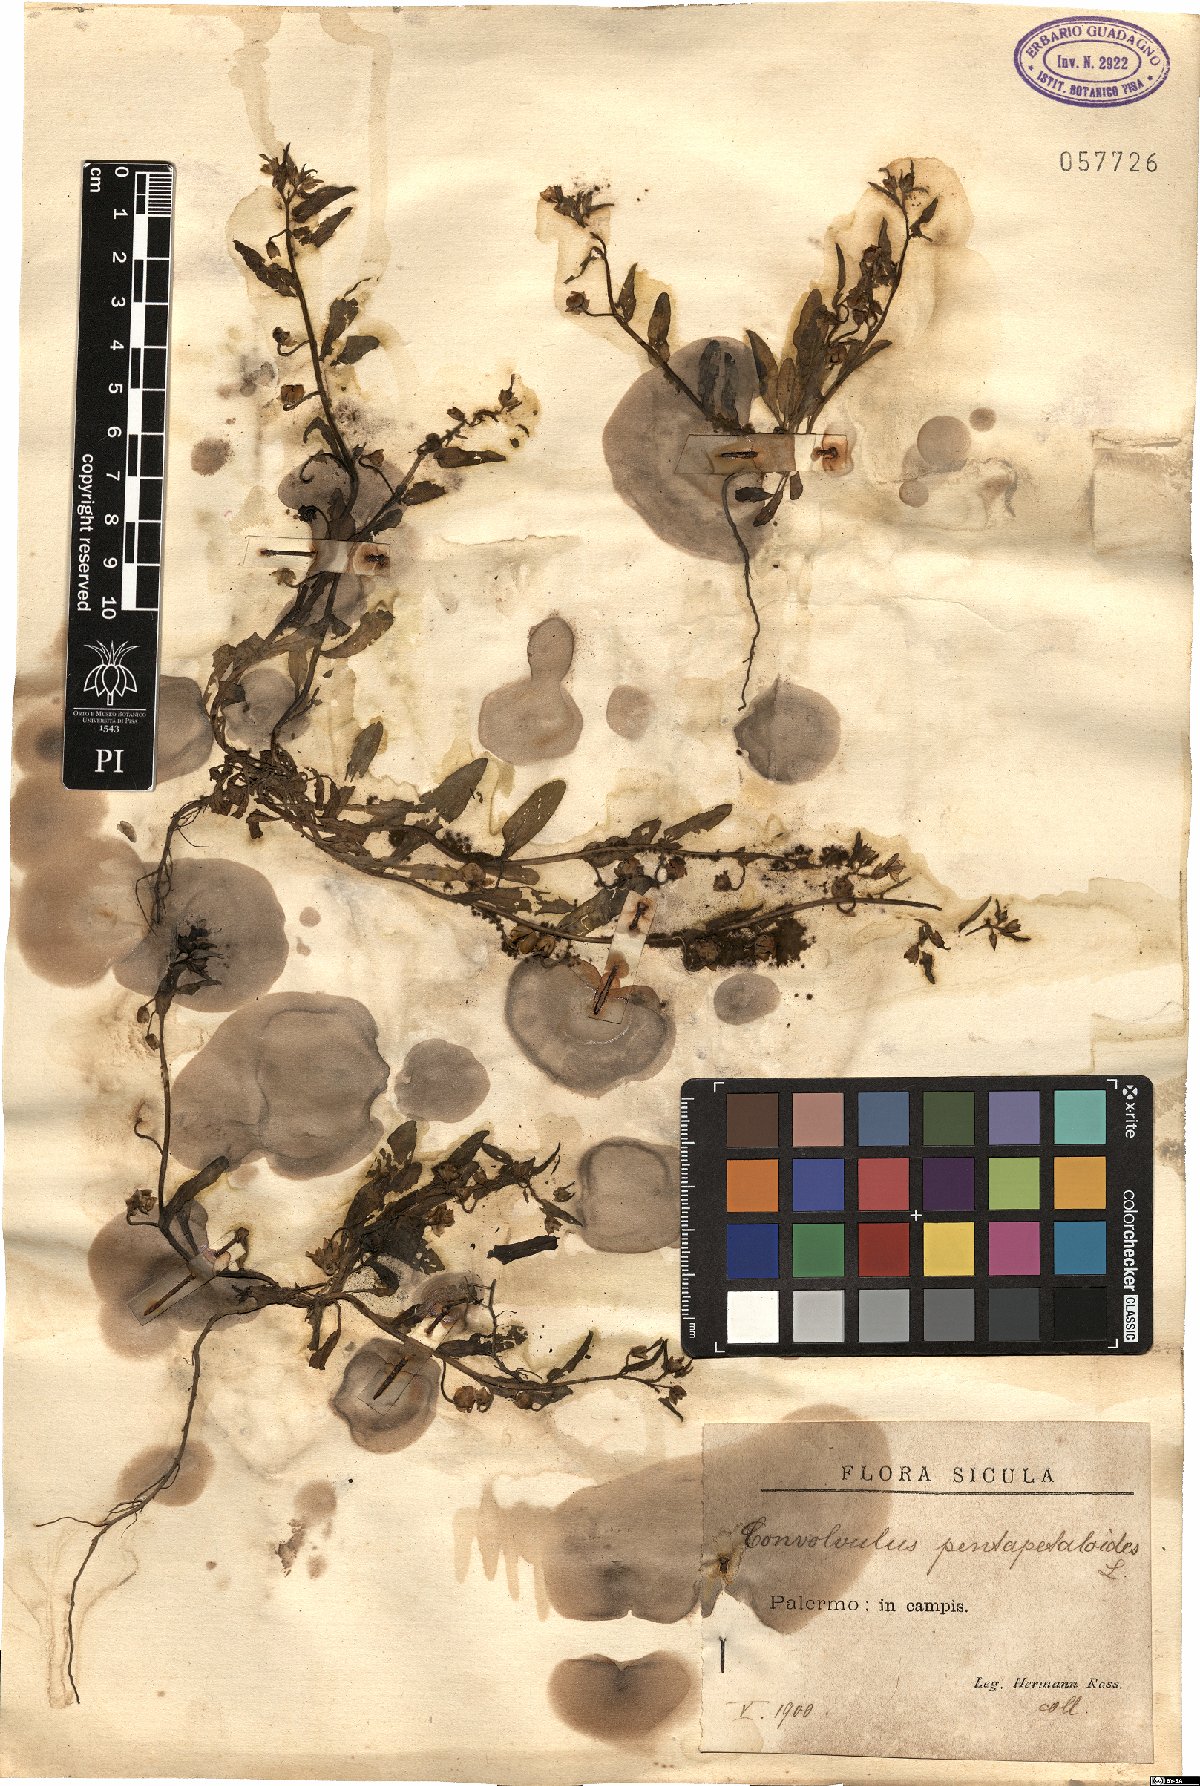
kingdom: Plantae
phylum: Tracheophyta
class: Magnoliopsida
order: Solanales
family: Convolvulaceae
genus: Convolvulus
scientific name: Convolvulus pentapetaloides
